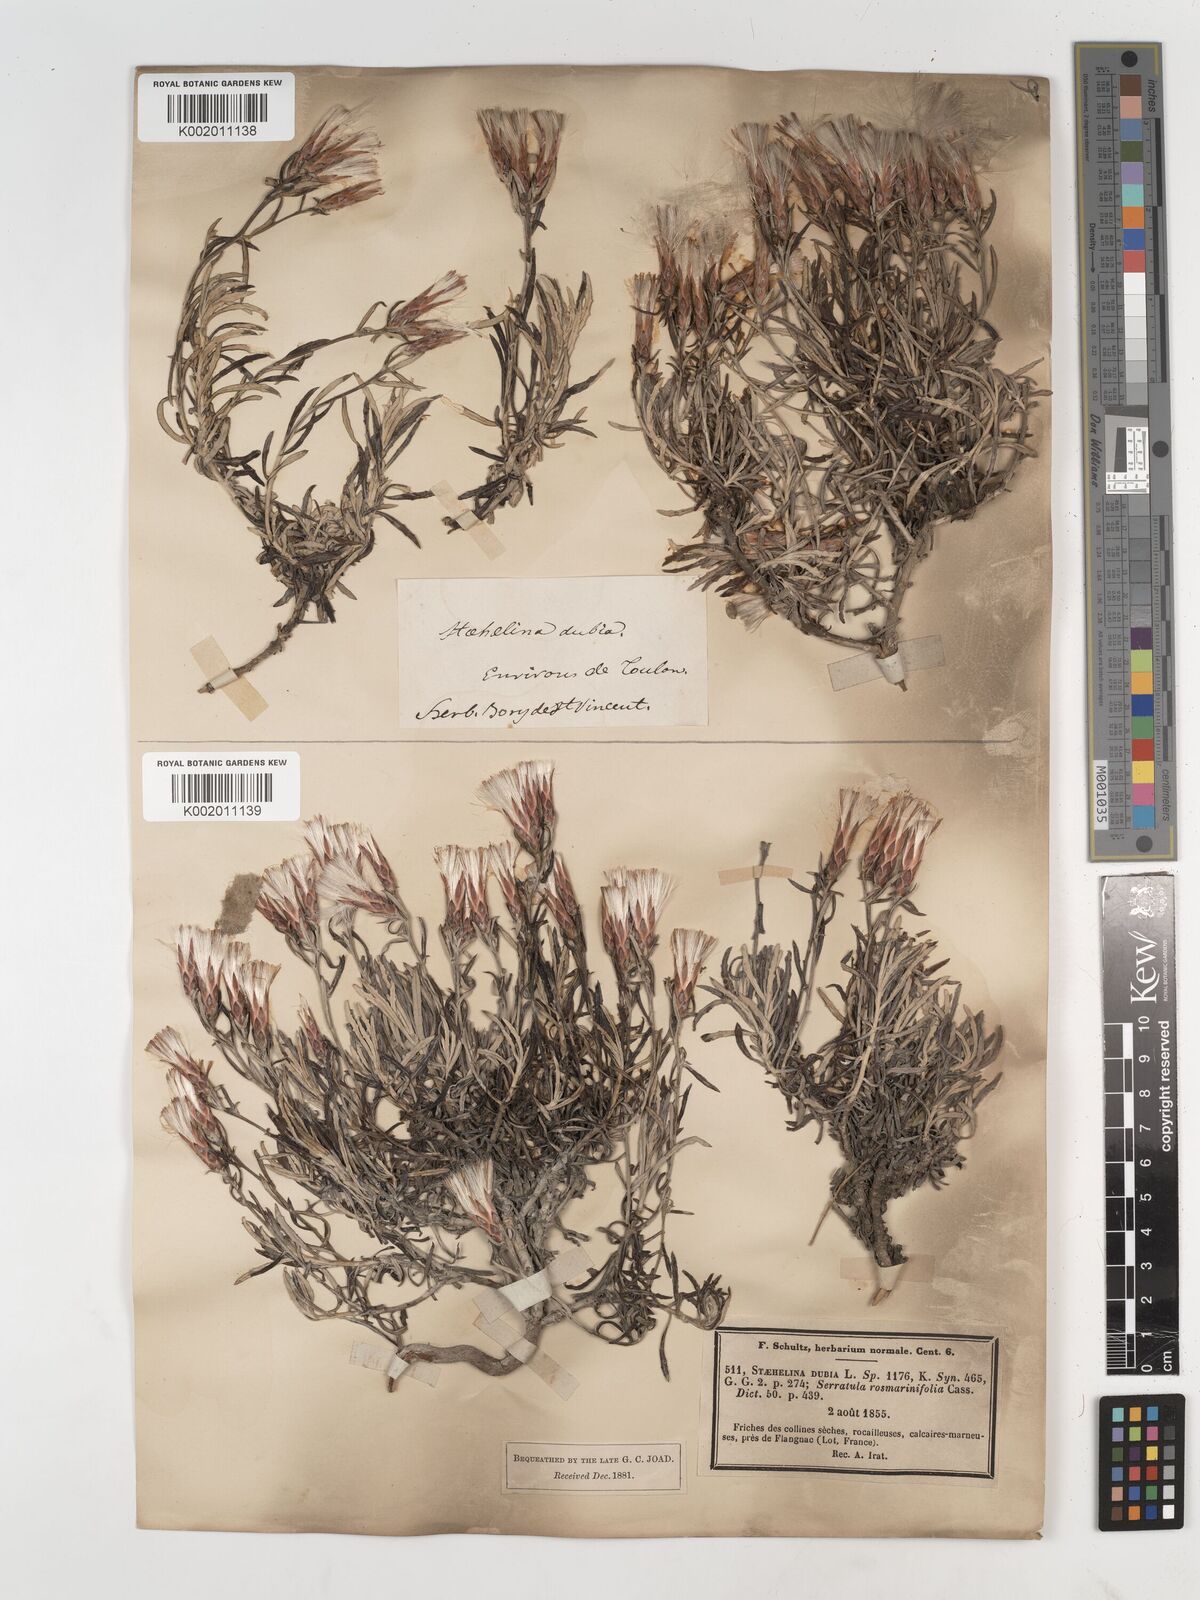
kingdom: Plantae
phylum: Tracheophyta
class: Magnoliopsida
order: Asterales
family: Asteraceae
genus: Staehelina
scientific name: Staehelina dubia
